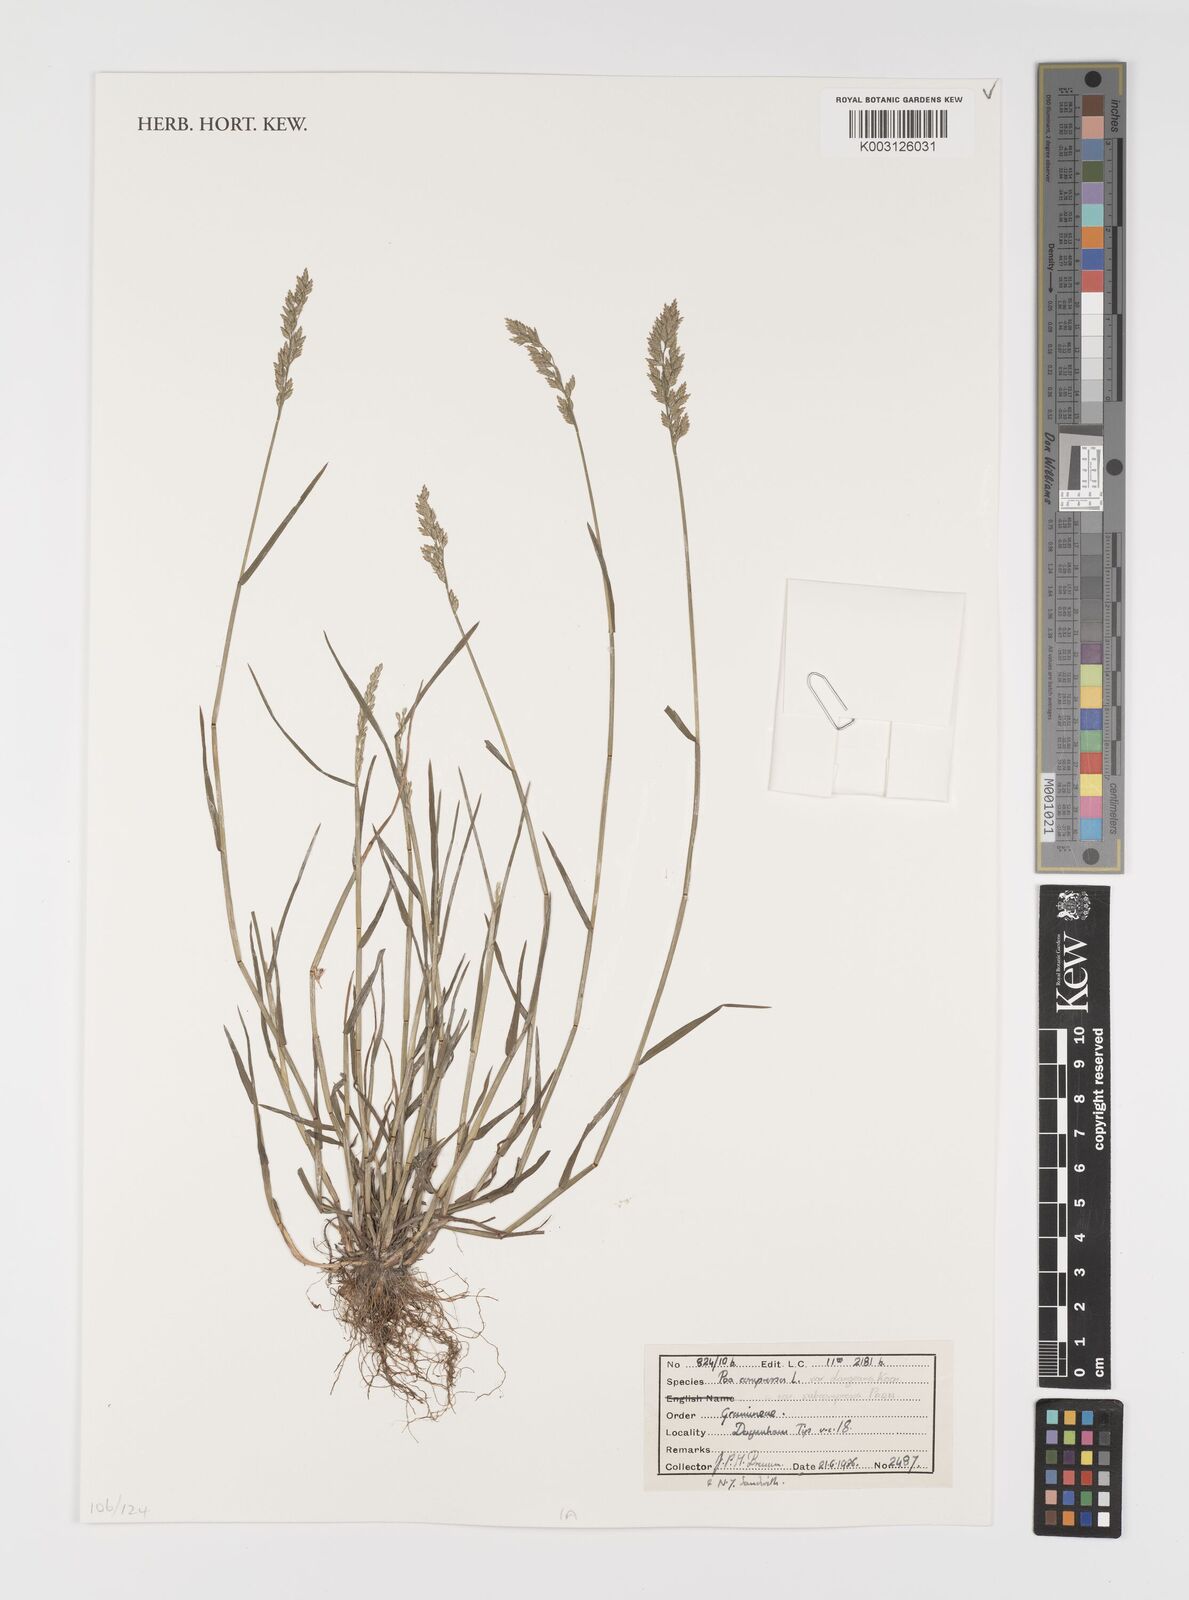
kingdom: Plantae
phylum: Tracheophyta
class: Liliopsida
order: Poales
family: Poaceae
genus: Poa
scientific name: Poa compressa
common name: Canada bluegrass
